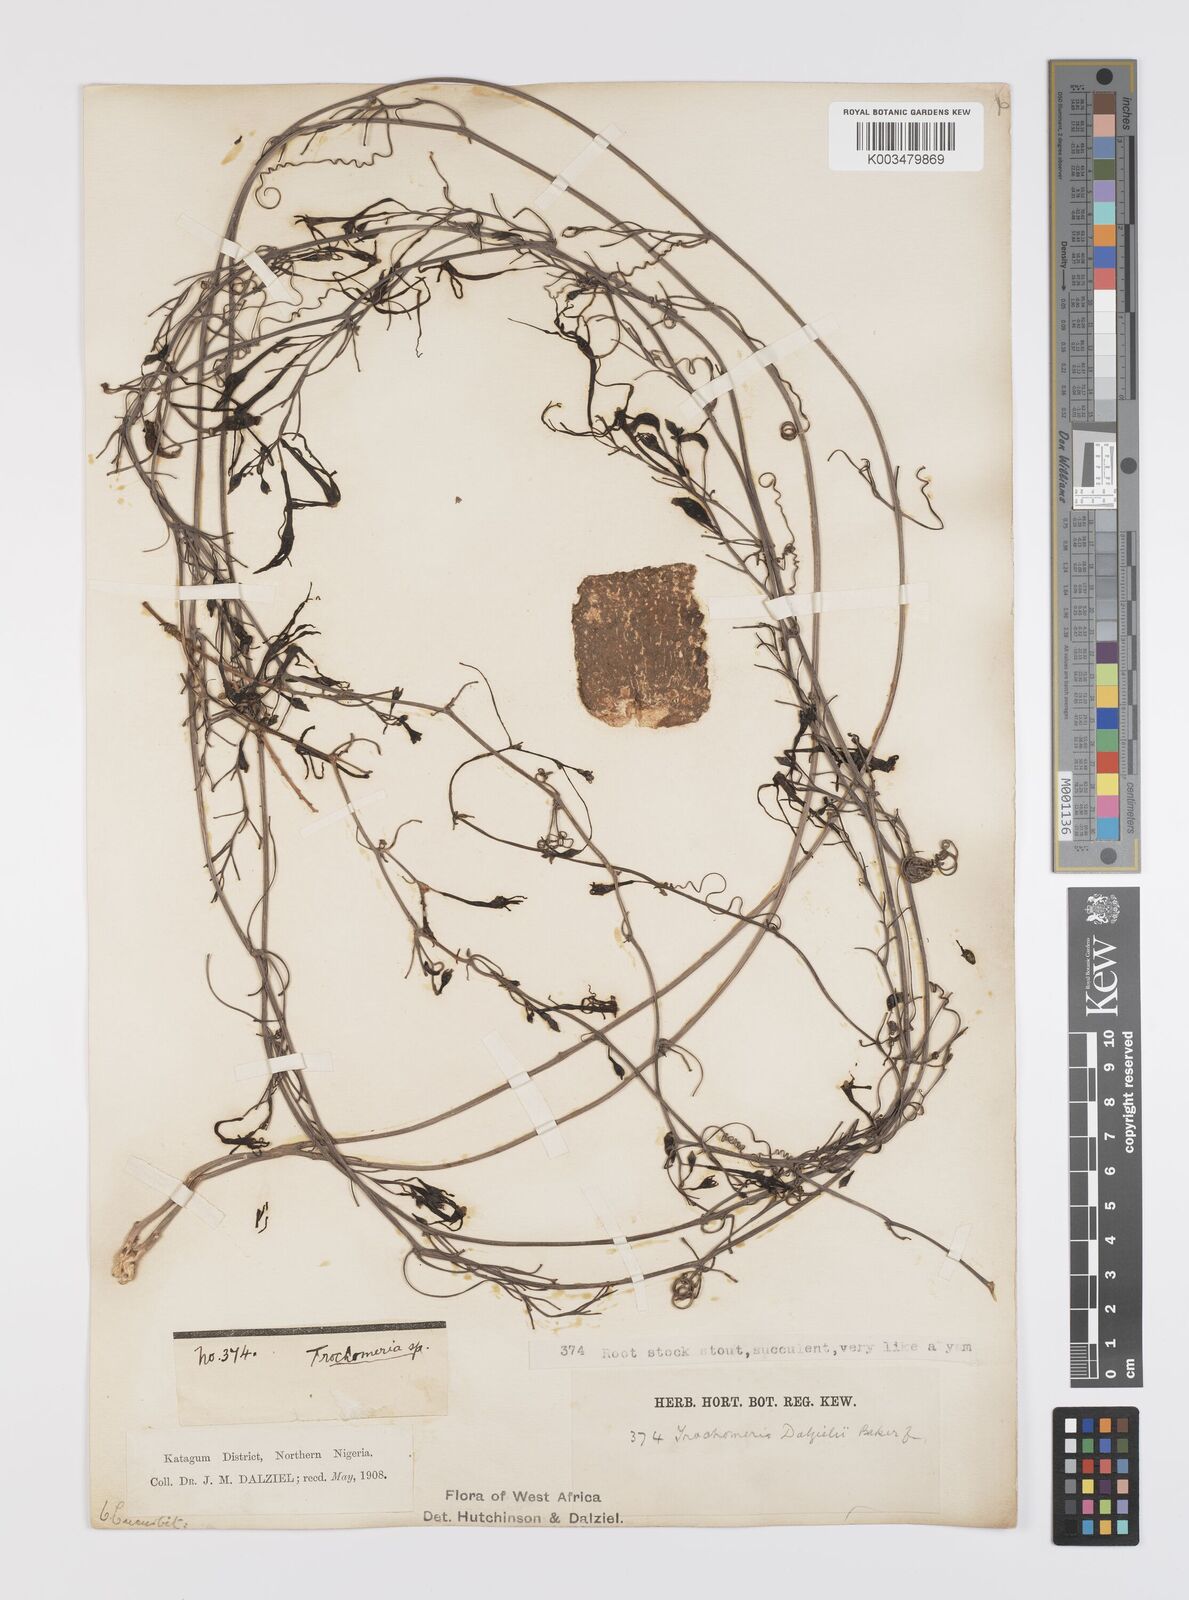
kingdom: Plantae
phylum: Tracheophyta
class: Magnoliopsida
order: Cucurbitales
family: Cucurbitaceae
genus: Trochomeria
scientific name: Trochomeria macrocarpa
